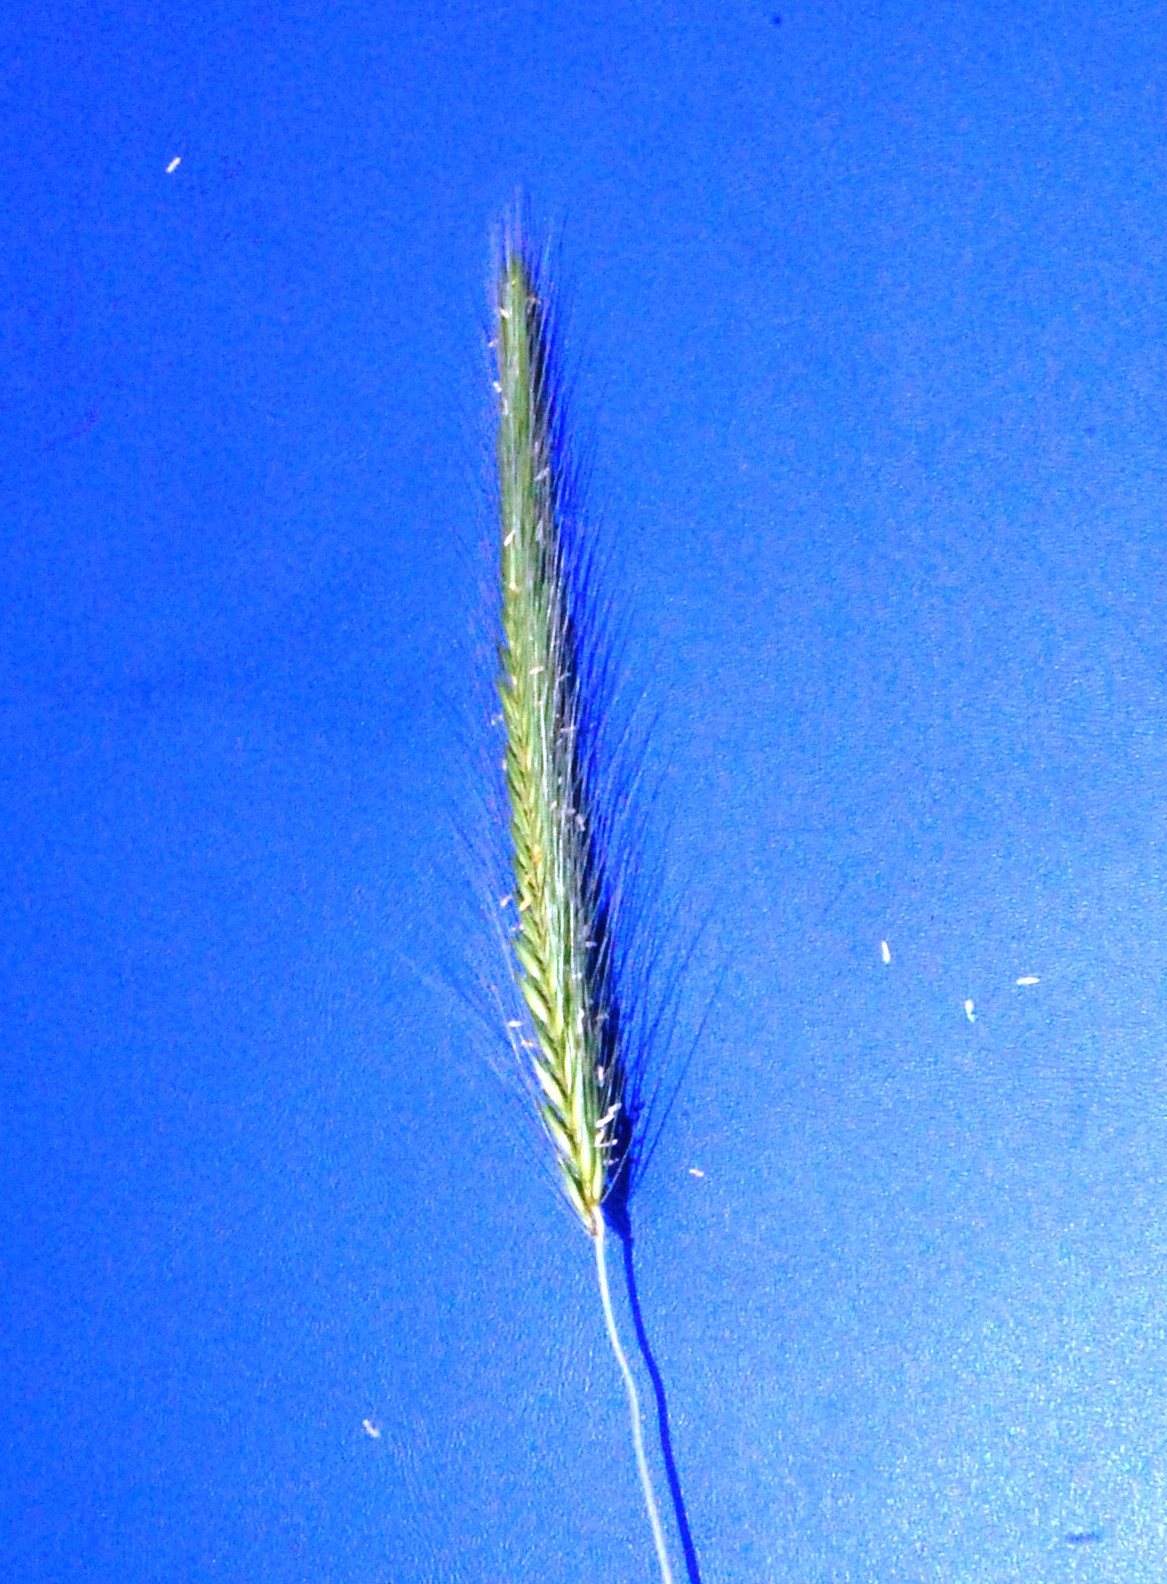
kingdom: Plantae
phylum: Tracheophyta
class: Liliopsida
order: Poales
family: Poaceae
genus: Hordeum
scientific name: Hordeum procerum
